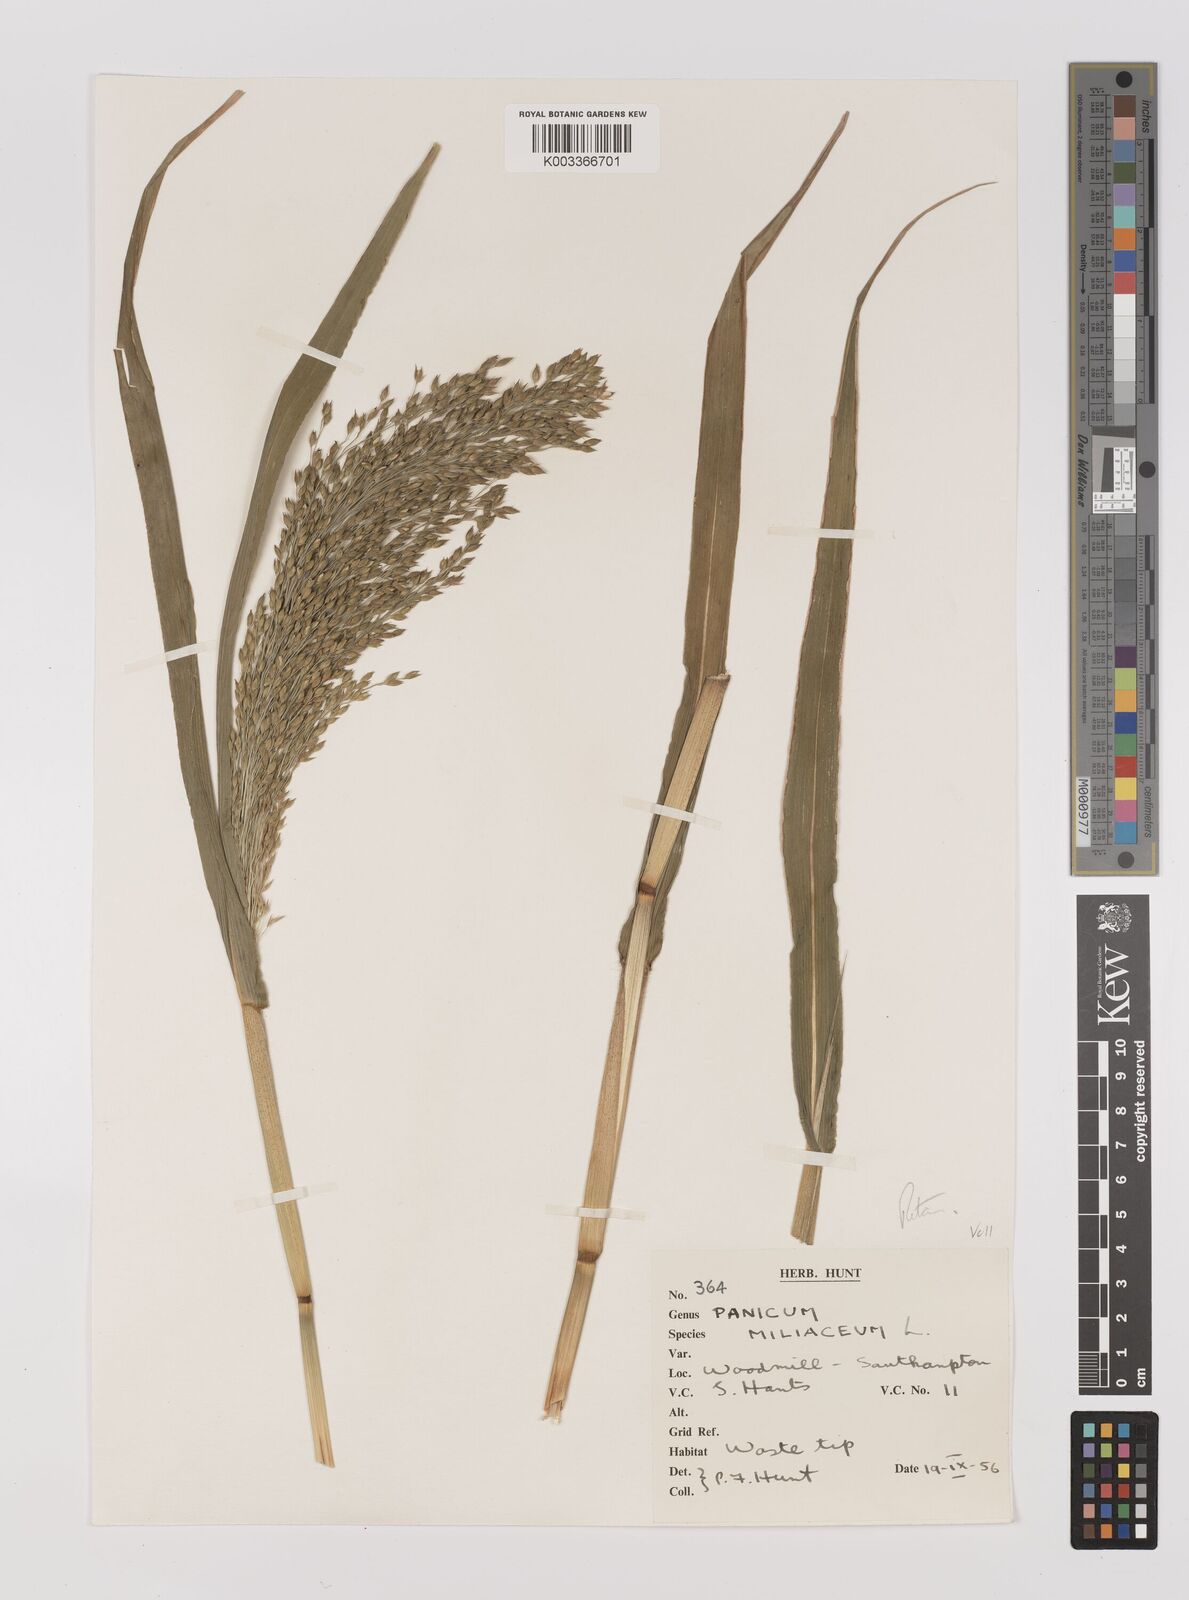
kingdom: Plantae
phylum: Tracheophyta
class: Liliopsida
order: Poales
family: Poaceae
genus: Panicum
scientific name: Panicum miliaceum
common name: Common millet
